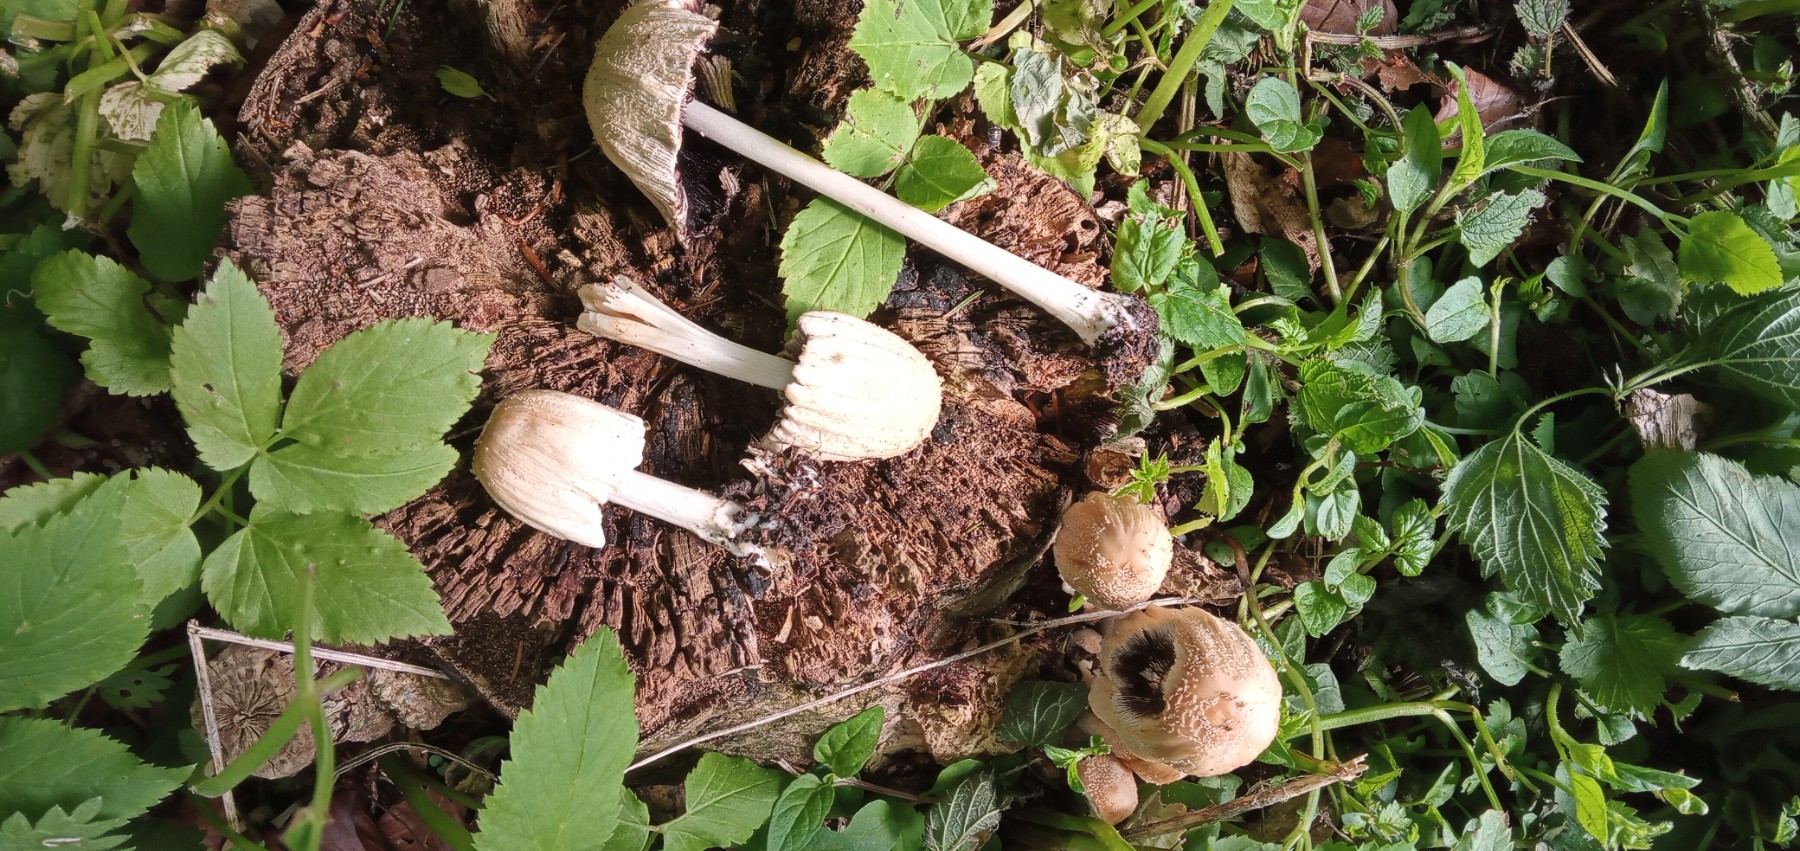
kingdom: Fungi
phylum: Basidiomycota
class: Agaricomycetes
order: Agaricales
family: Psathyrellaceae
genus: Coprinellus
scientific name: Coprinellus
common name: blækhat
